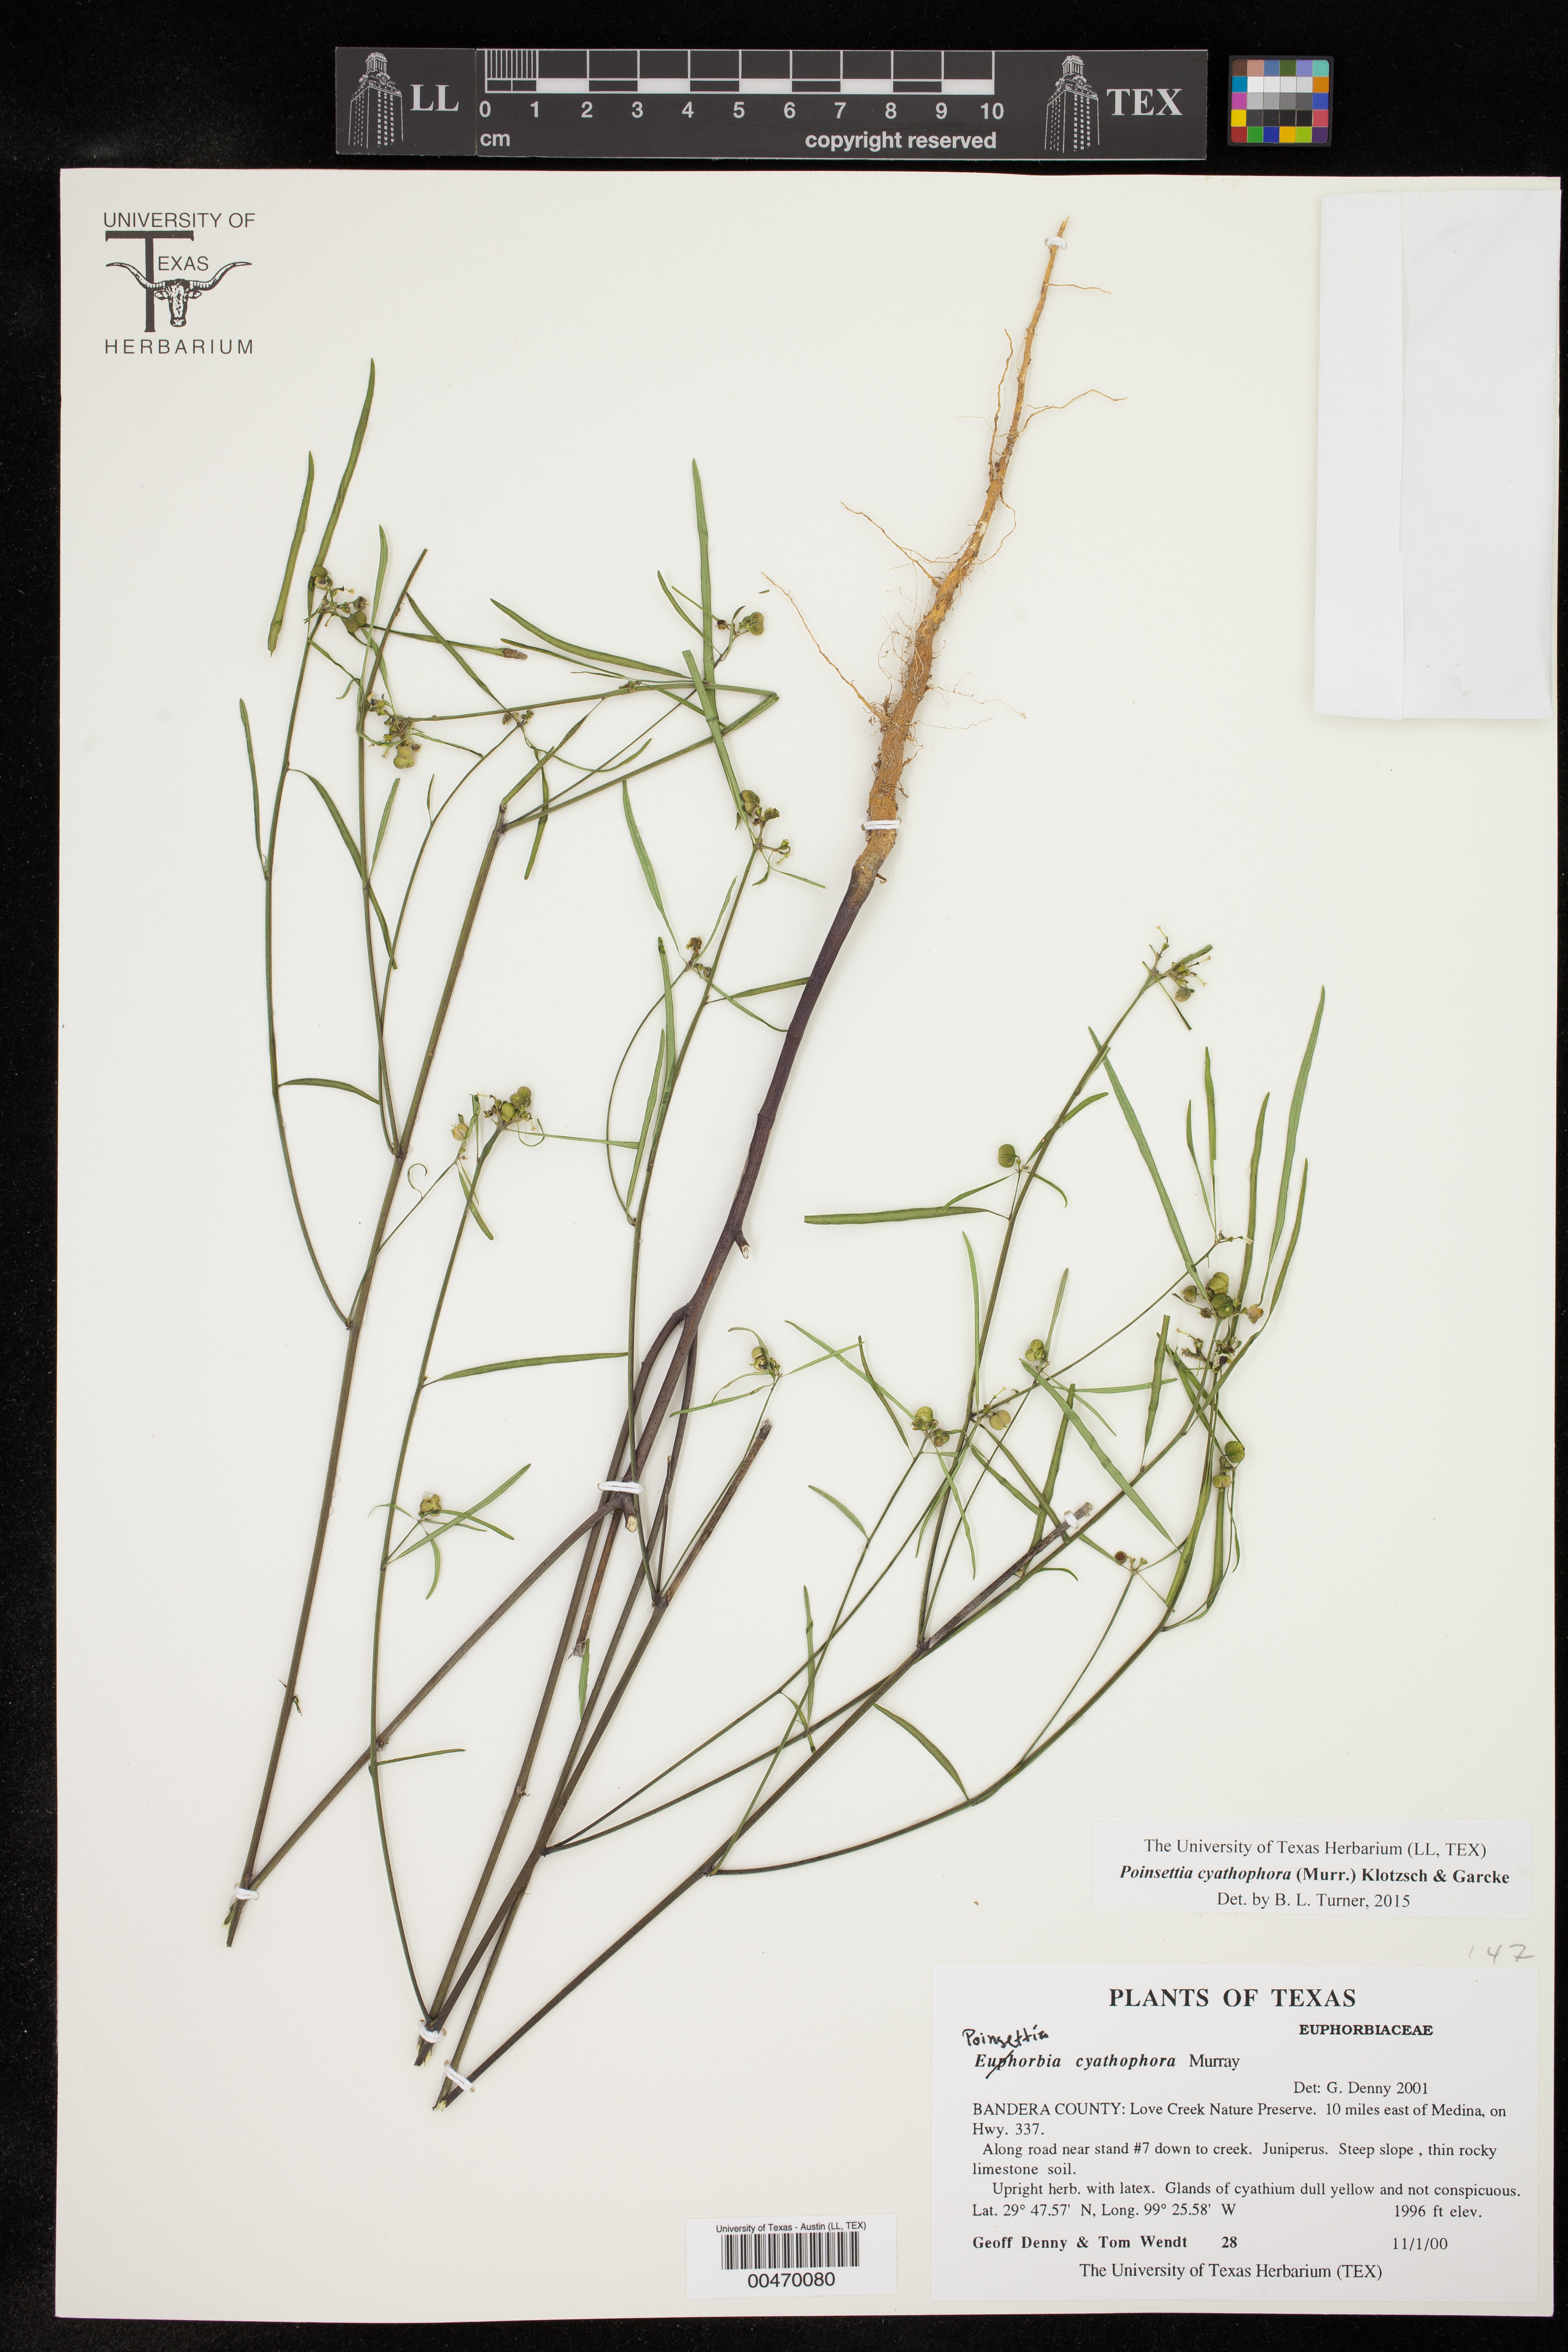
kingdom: Plantae
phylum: Tracheophyta
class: Magnoliopsida
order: Malpighiales
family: Euphorbiaceae
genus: Euphorbia
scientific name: Euphorbia heterophylla
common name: Mexican fireplant
